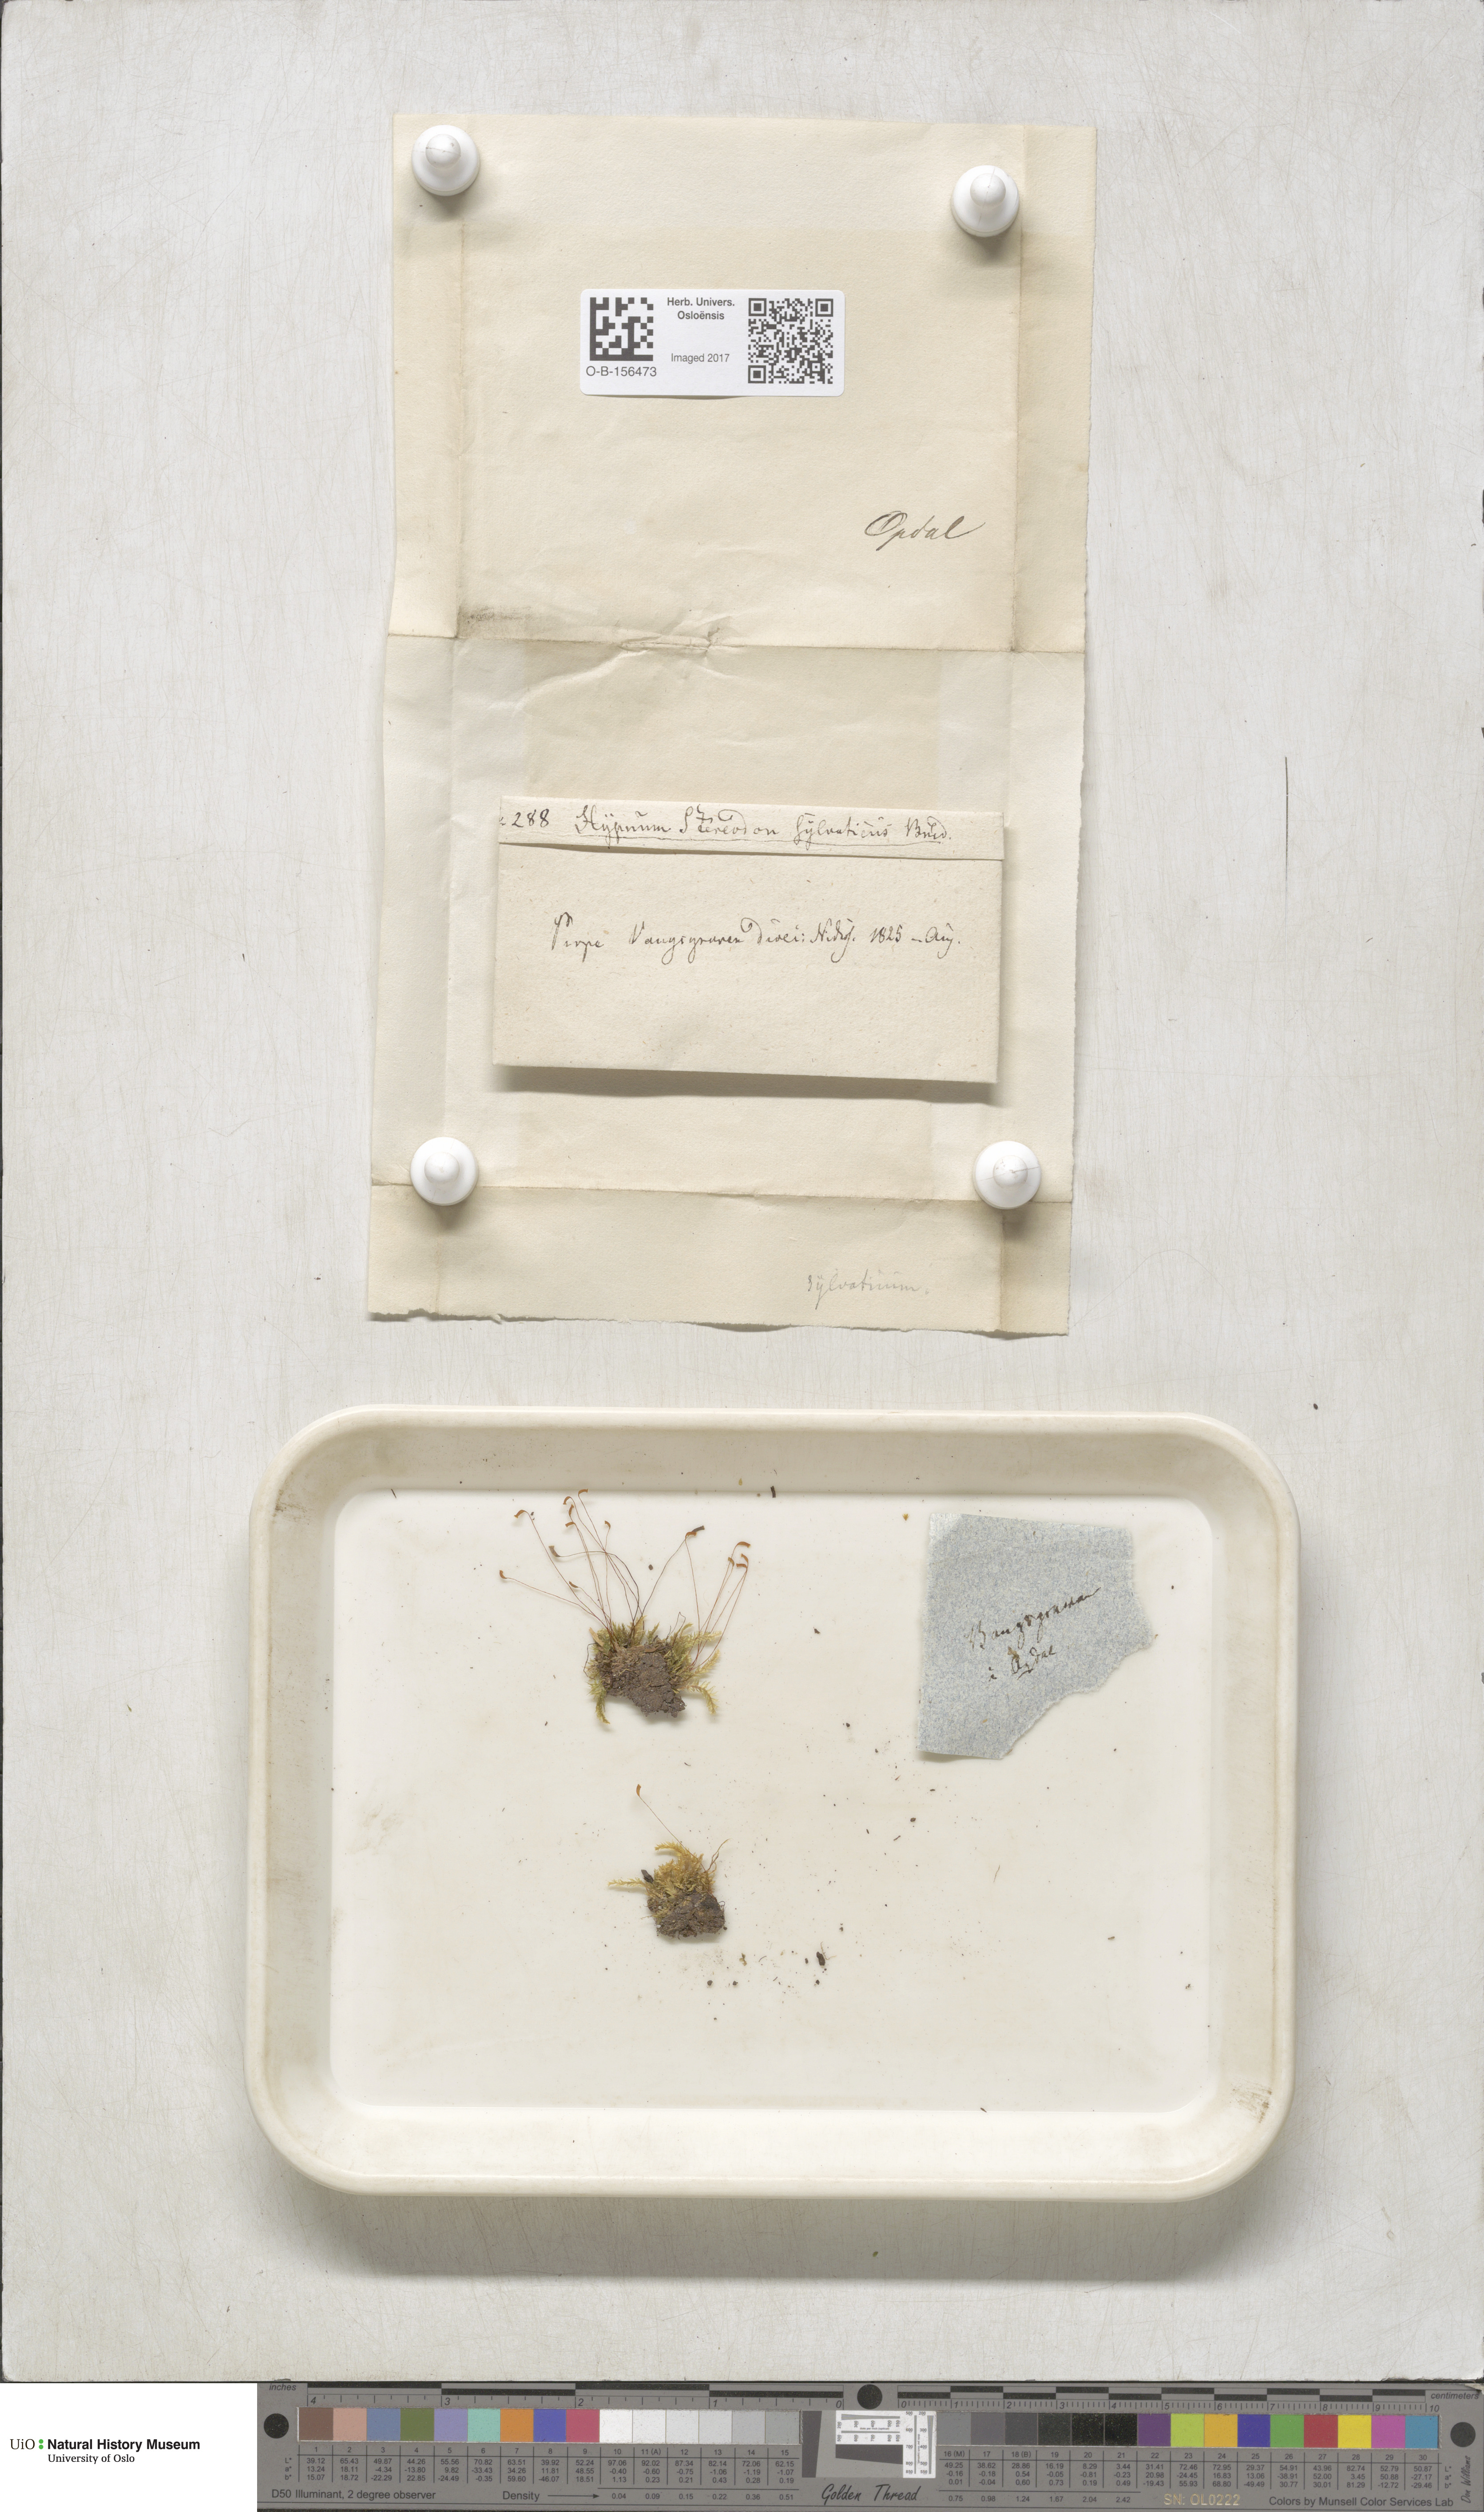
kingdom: Plantae
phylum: Bryophyta
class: Bryopsida
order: Hypnales
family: Plagiotheciaceae
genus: Plagiothecium
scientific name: Plagiothecium nemorale
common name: Woodsy silk-moss
